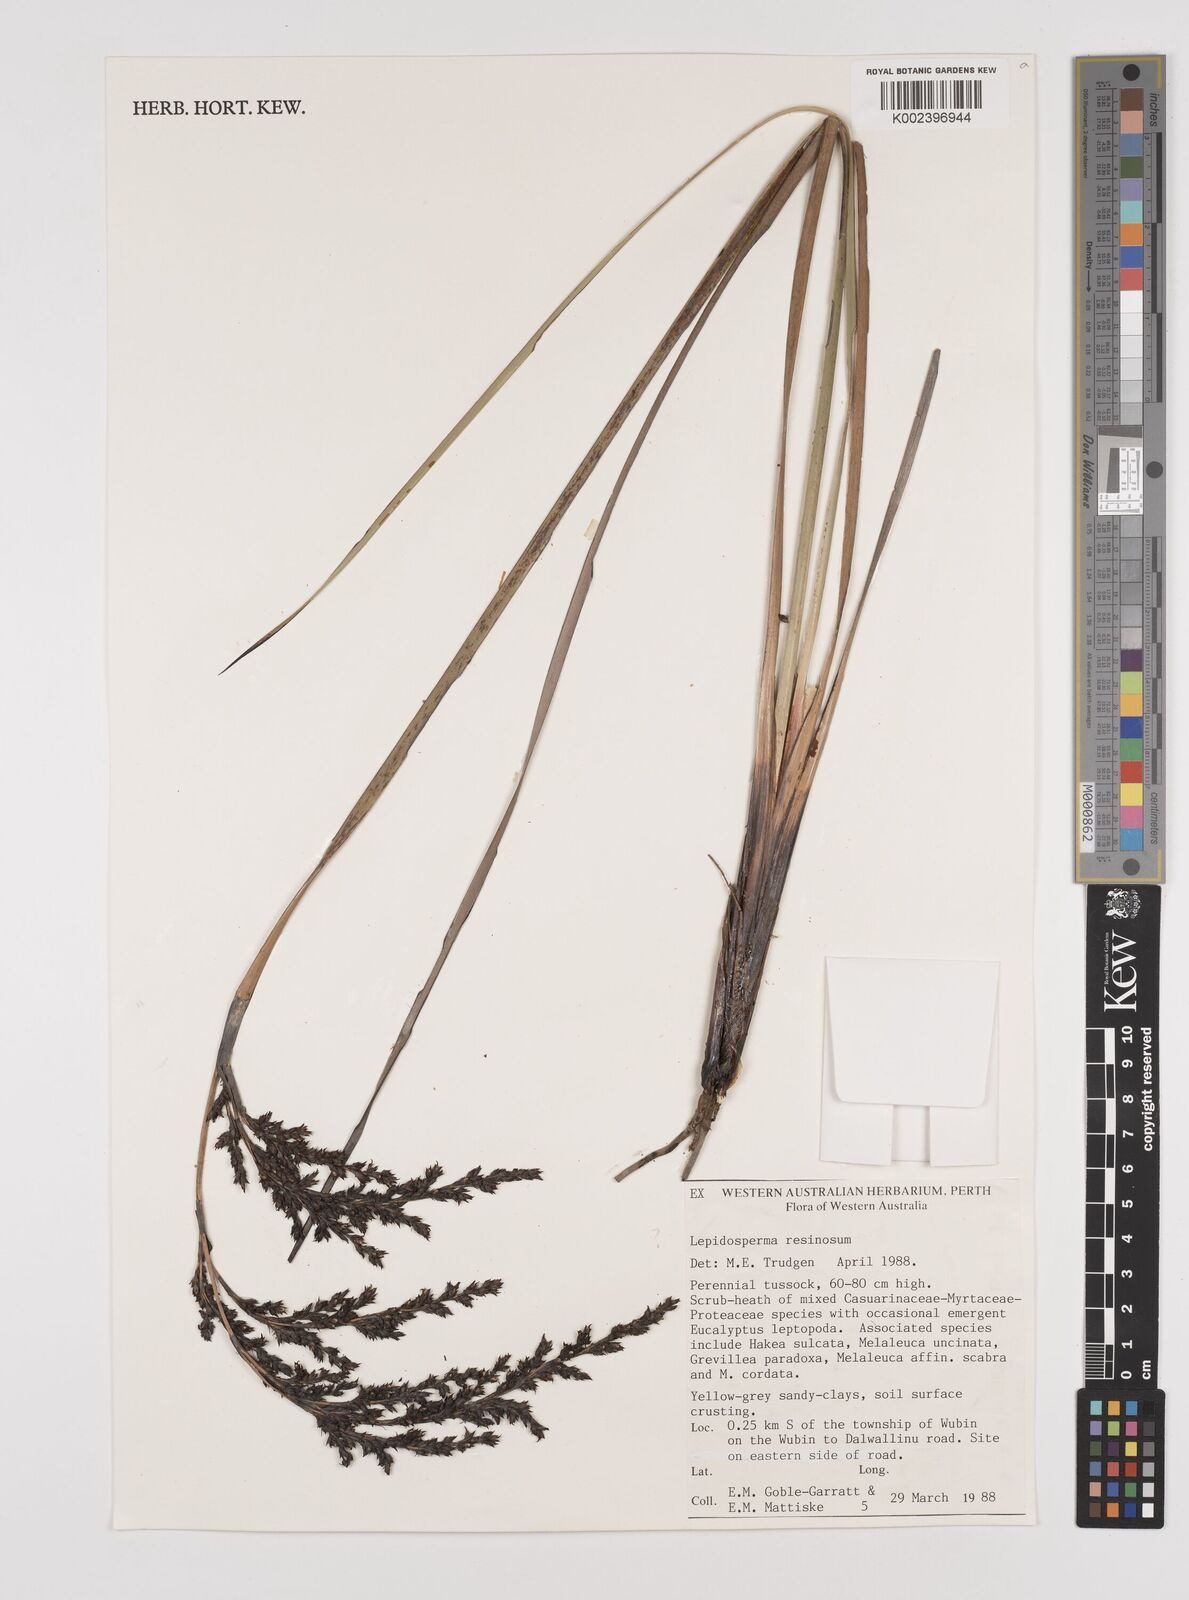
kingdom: Plantae
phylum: Tracheophyta
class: Liliopsida
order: Poales
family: Cyperaceae
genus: Lepidosperma
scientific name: Lepidosperma resinosum
